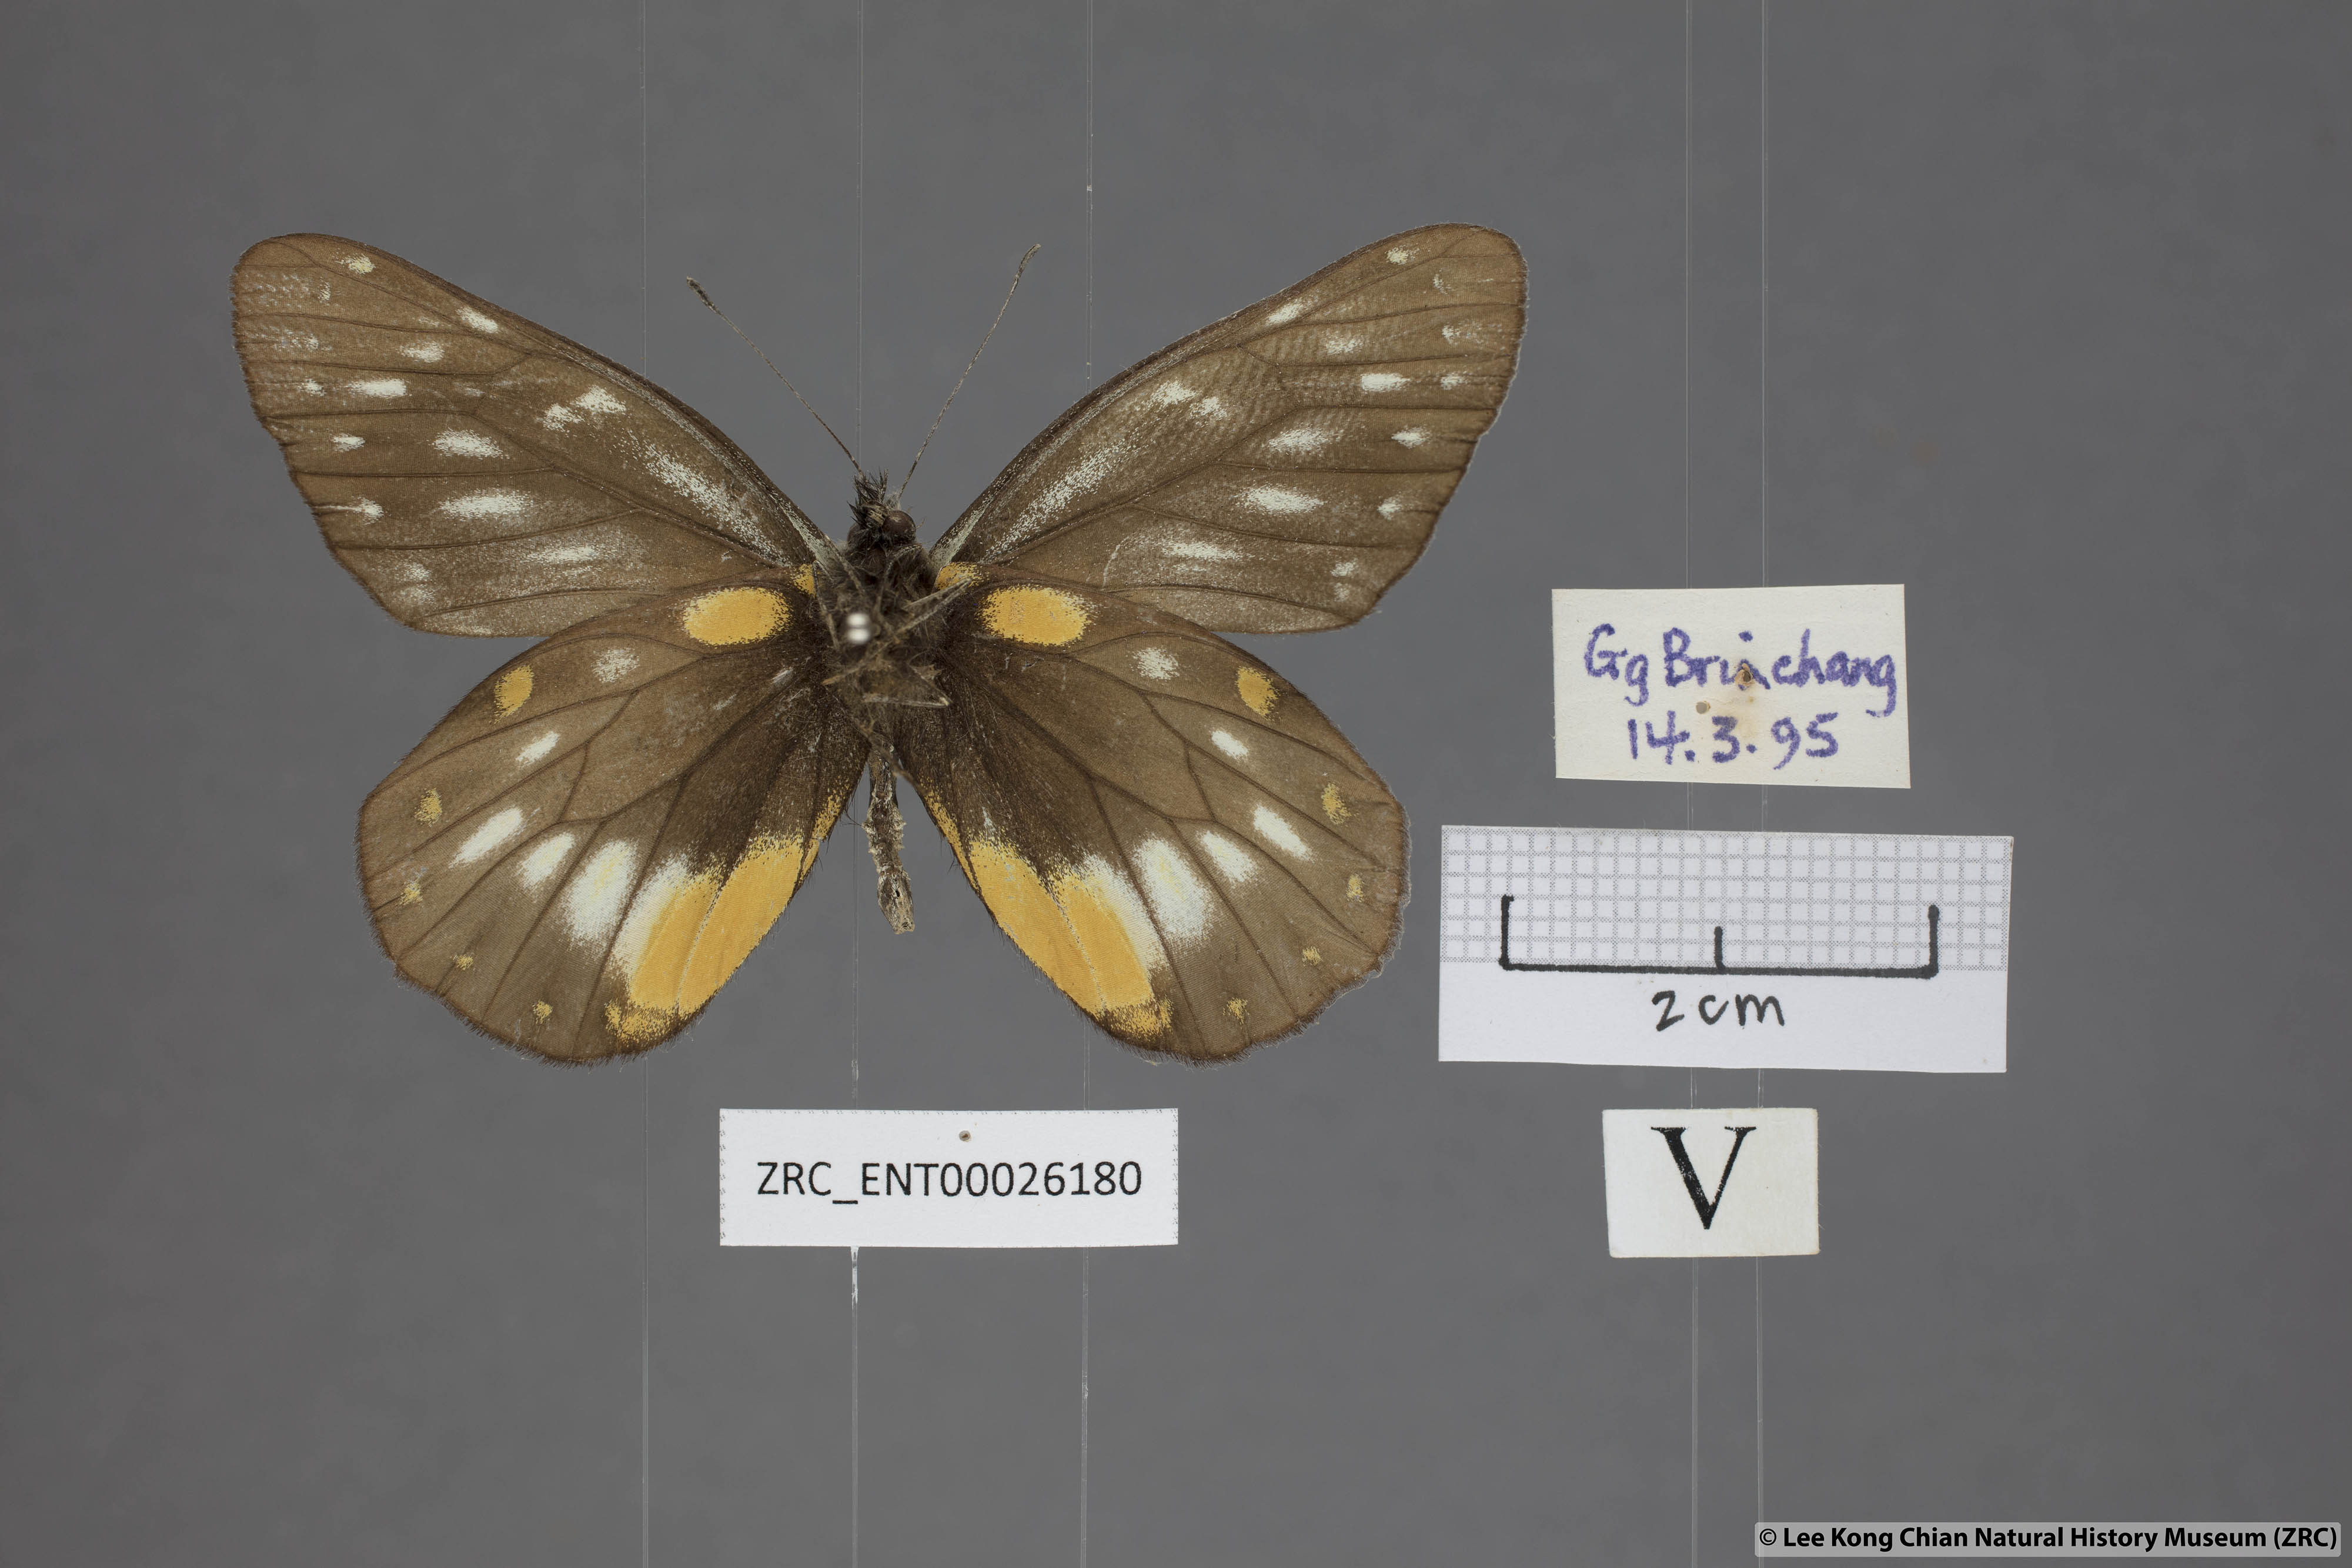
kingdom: Animalia
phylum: Arthropoda
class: Insecta
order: Lepidoptera
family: Pieridae
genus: Delias
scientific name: Delias belladonna
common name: Hill jezebel
